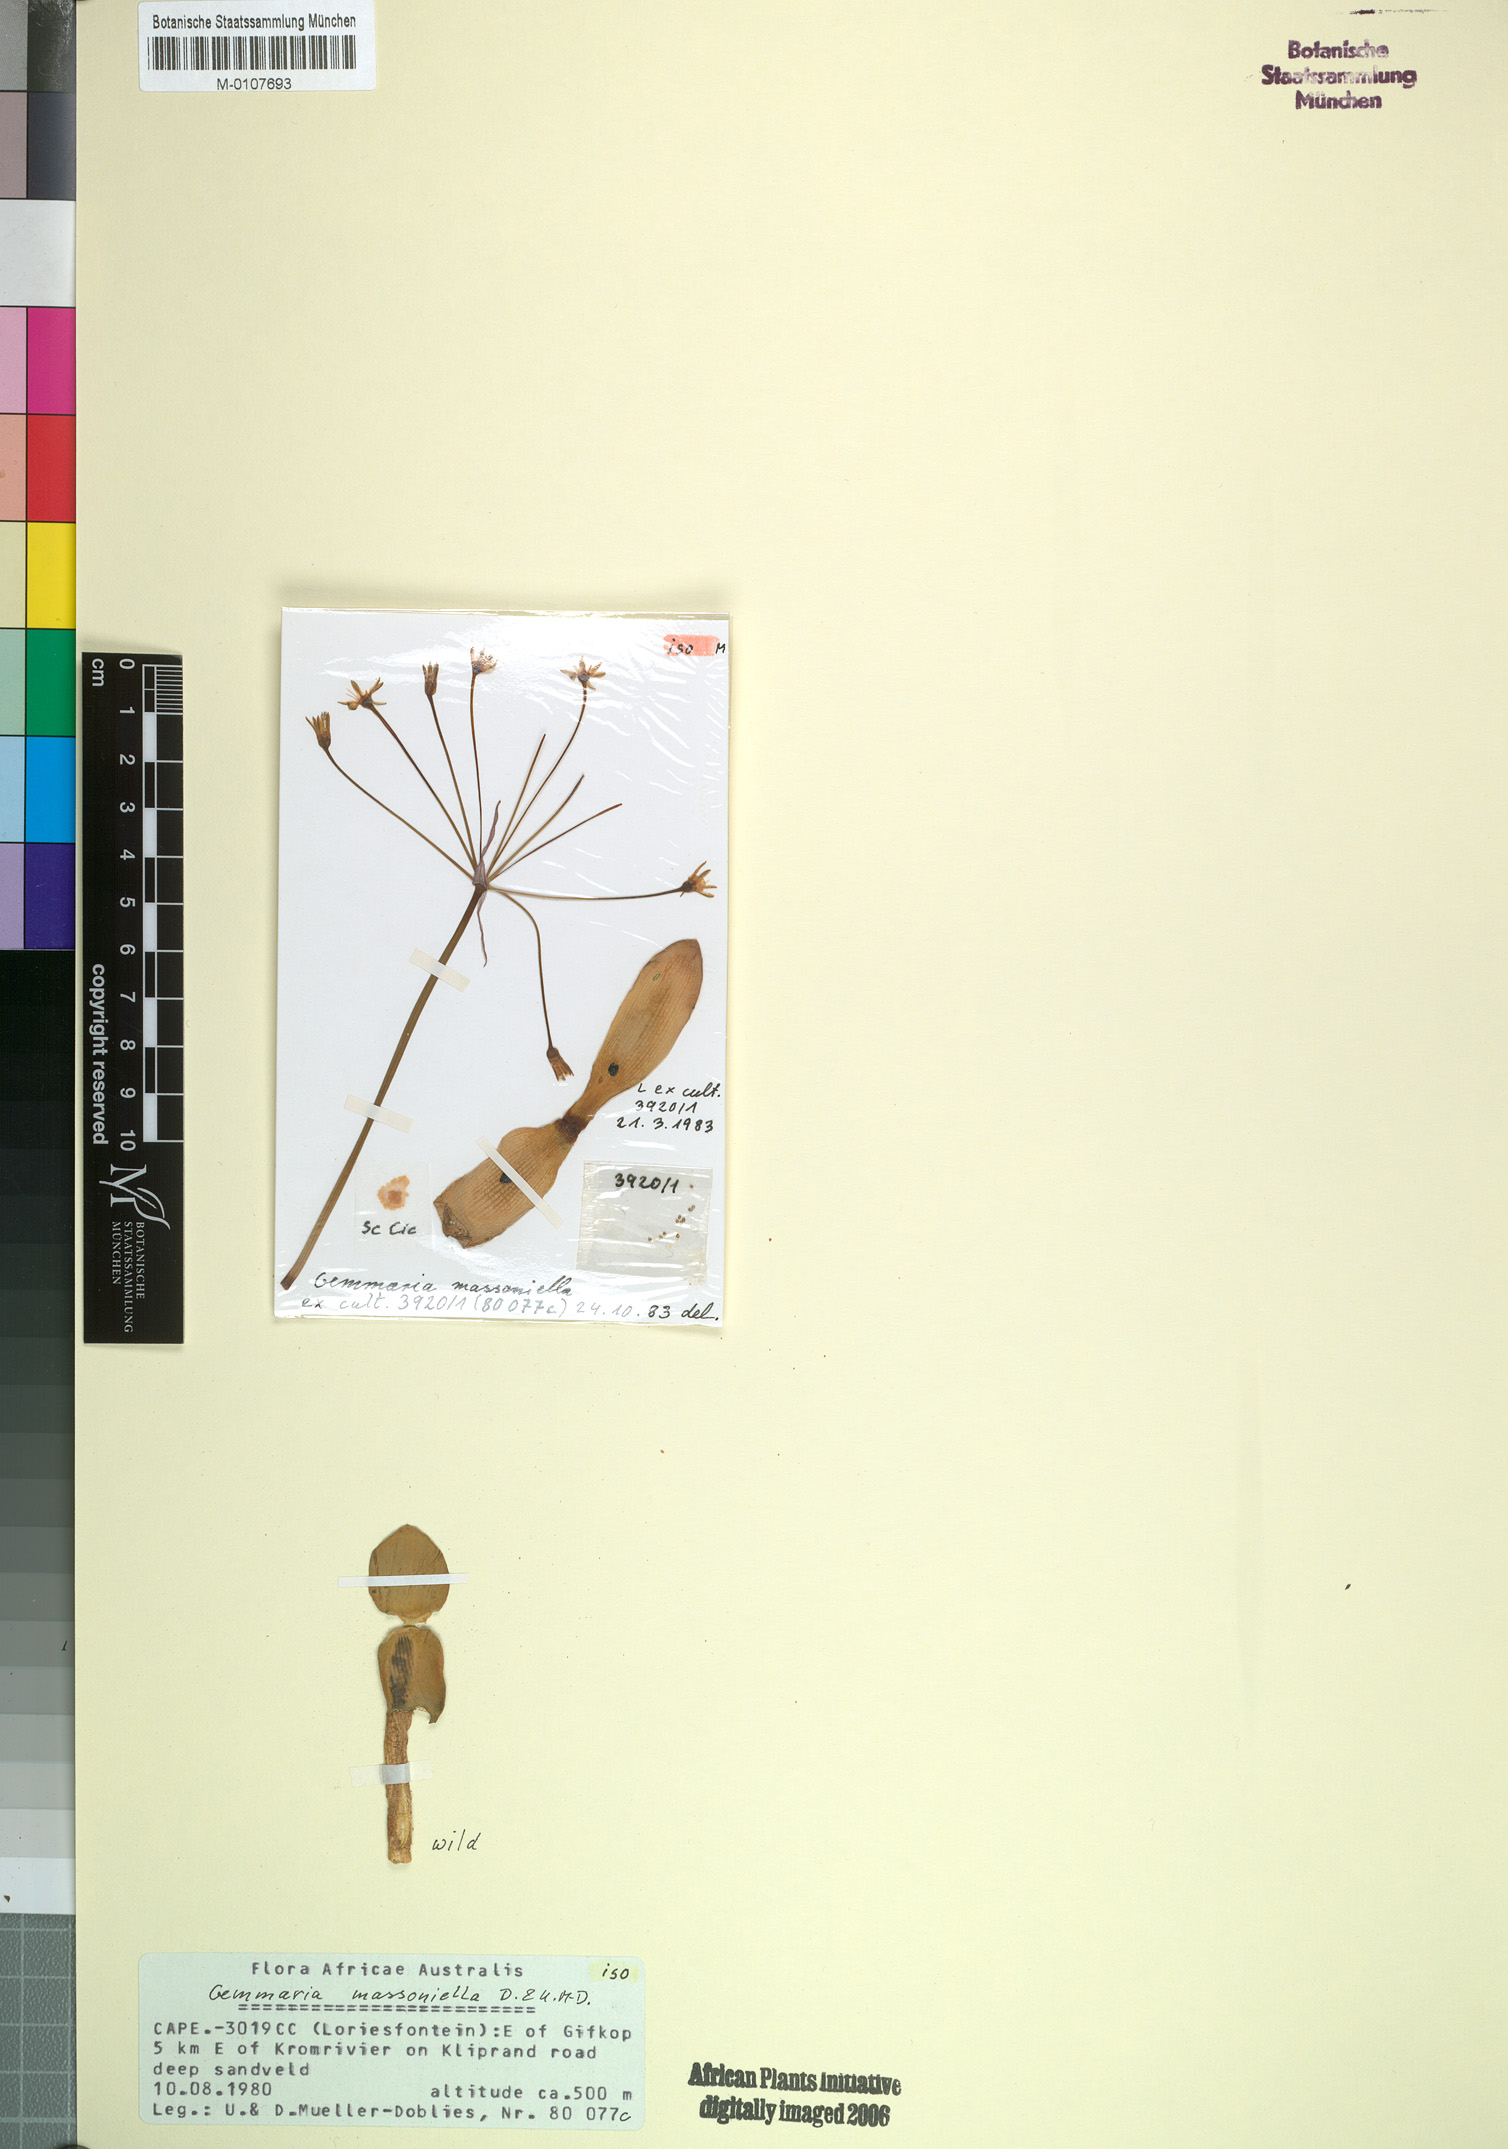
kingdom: Plantae
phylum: Tracheophyta
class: Liliopsida
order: Asparagales
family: Amaryllidaceae
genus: Strumaria
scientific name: Strumaria massoniella
